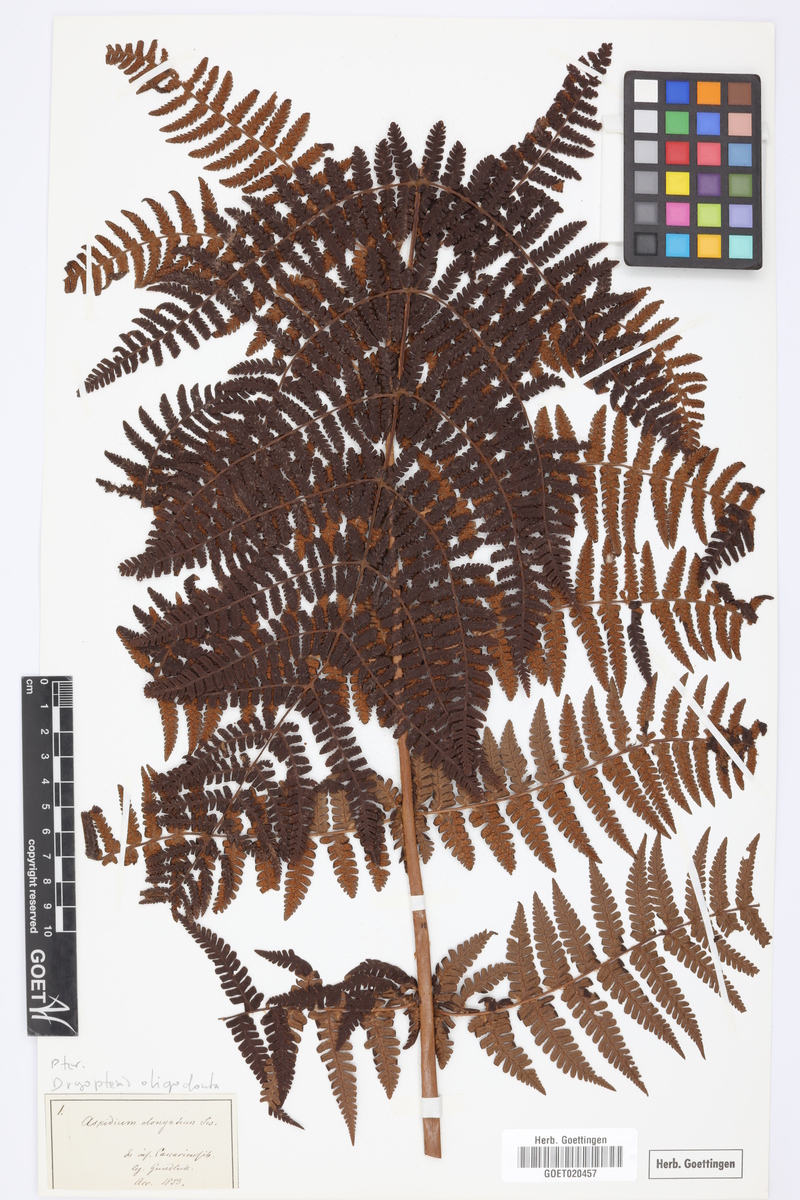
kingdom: Plantae
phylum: Tracheophyta
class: Polypodiopsida
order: Polypodiales
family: Dryopteridaceae
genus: Dryopteris
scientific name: Dryopteris oligodonta
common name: Canarian male-fern
